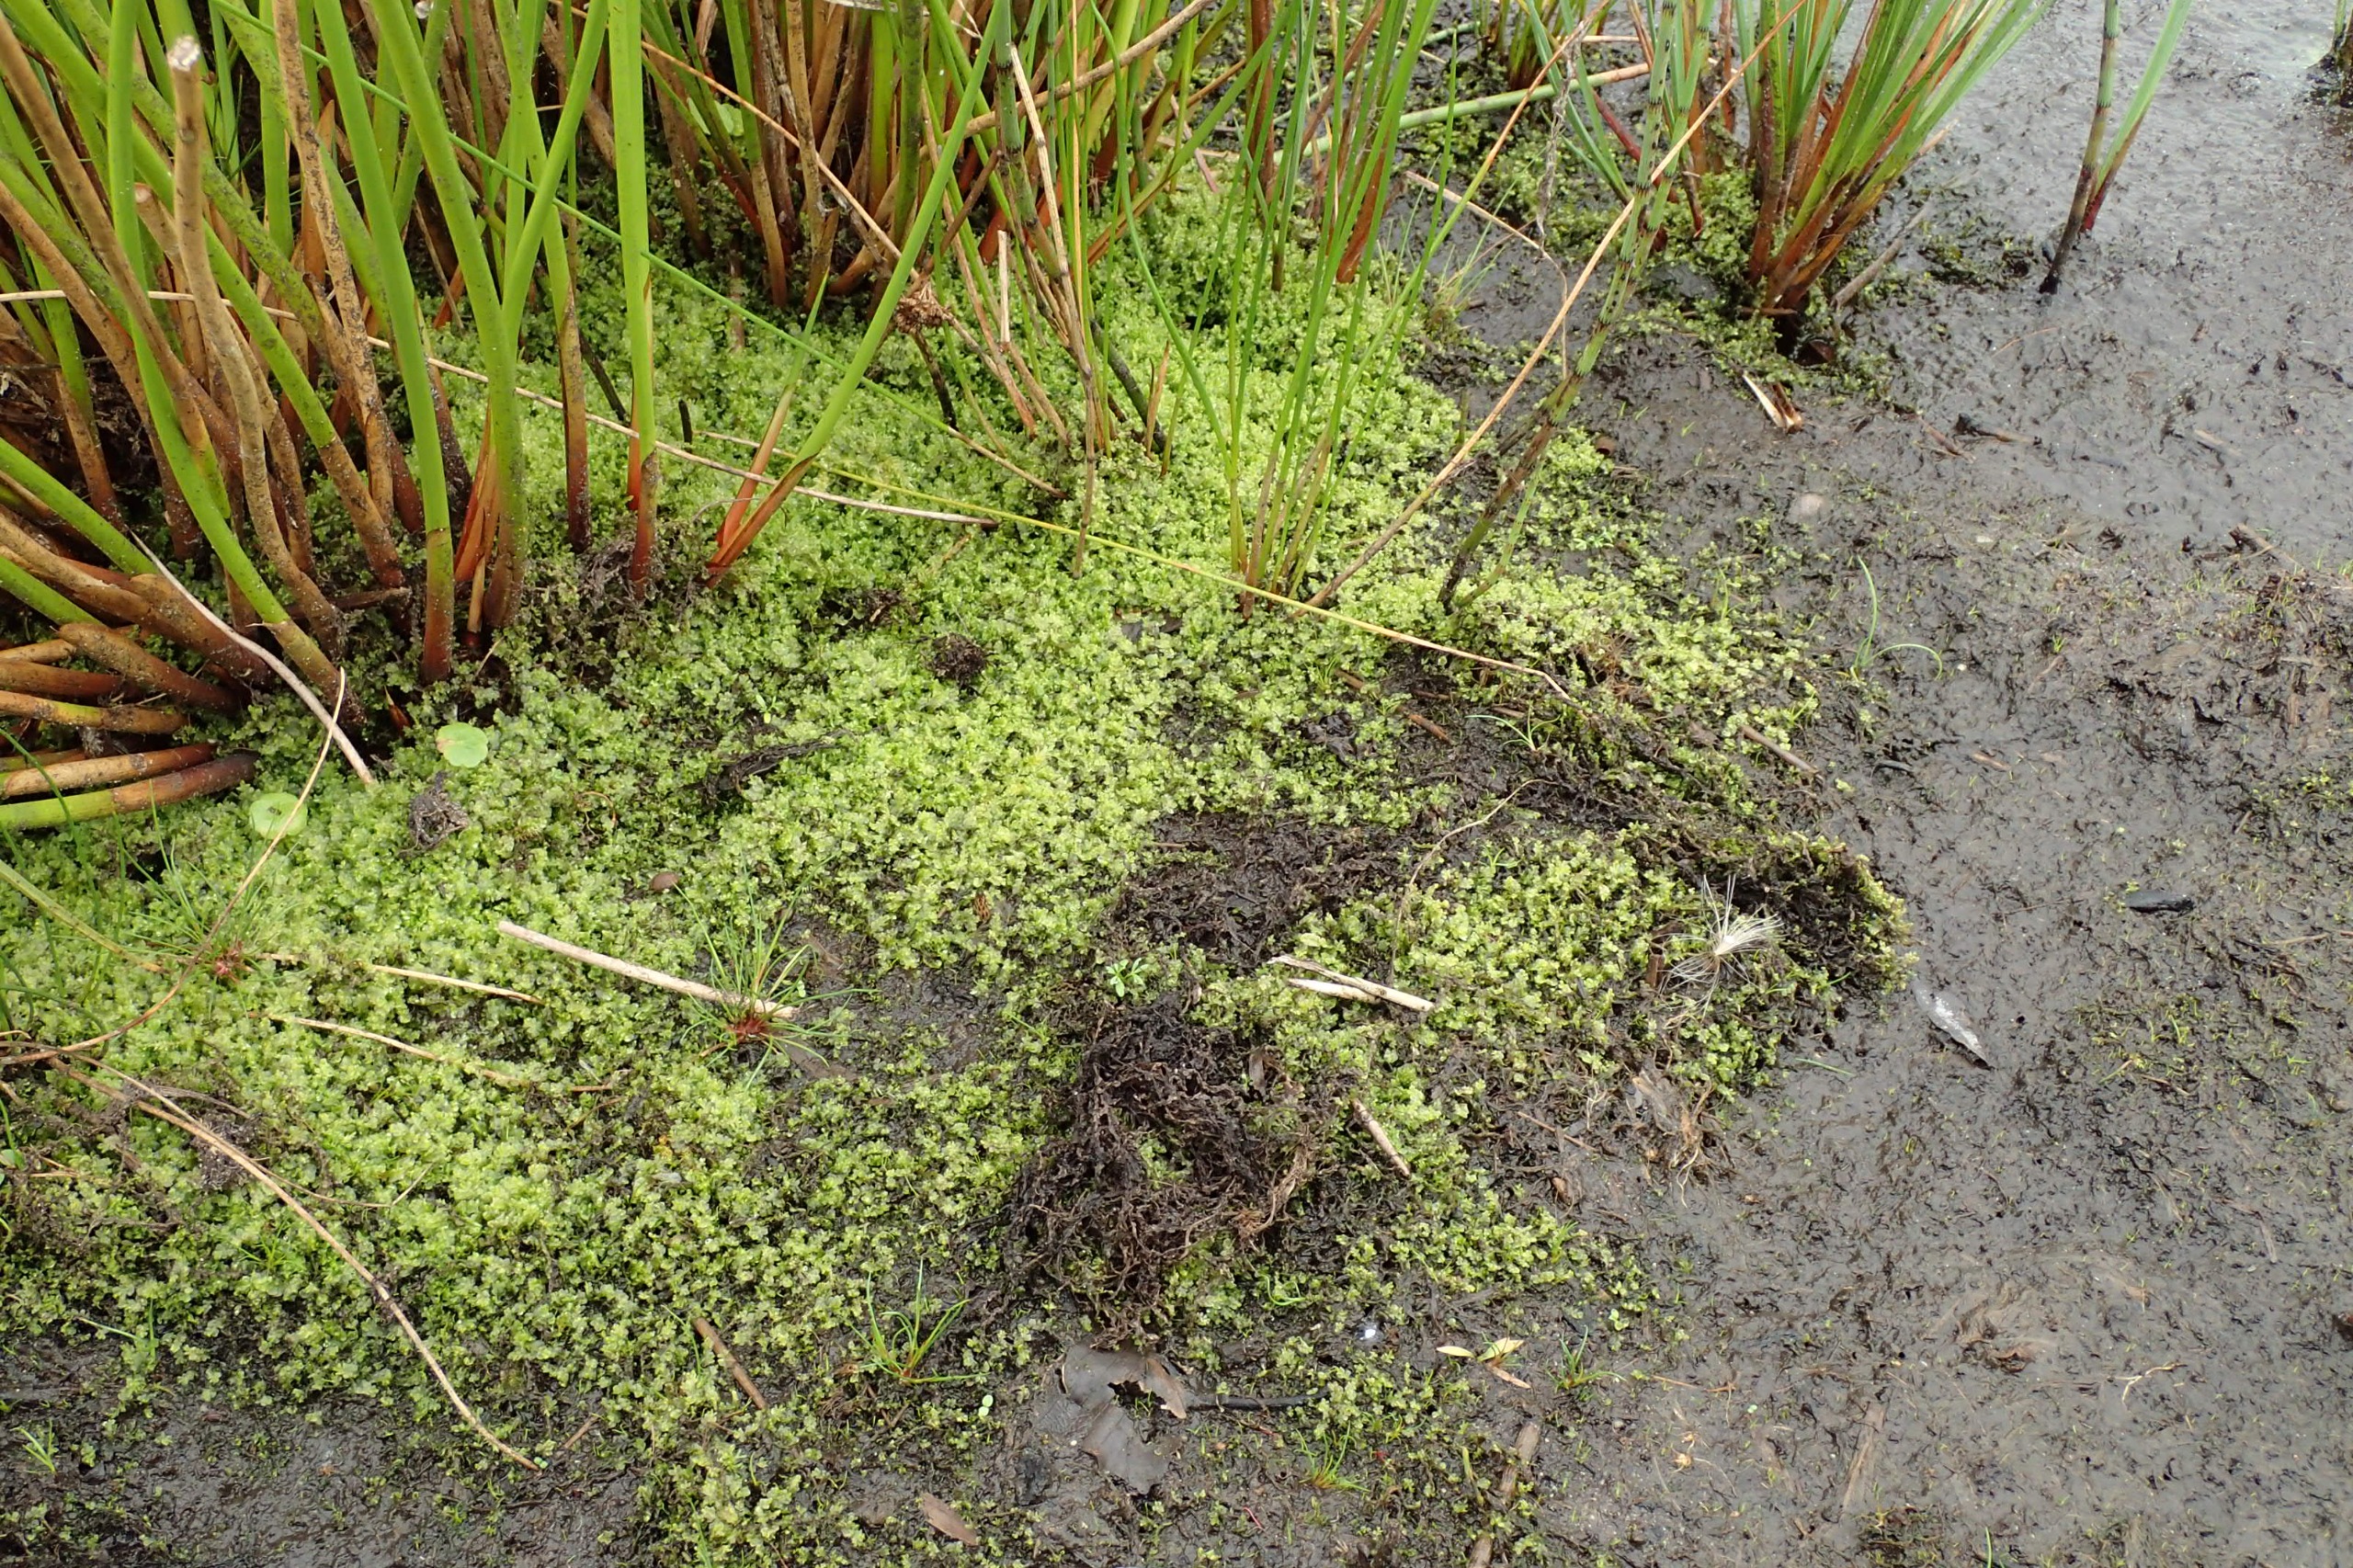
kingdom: Plantae
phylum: Marchantiophyta
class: Jungermanniopsida
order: Jungermanniales
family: Lophocoleaceae
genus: Chiloscyphus
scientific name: Chiloscyphus pallescens
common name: Bleg læbemund
